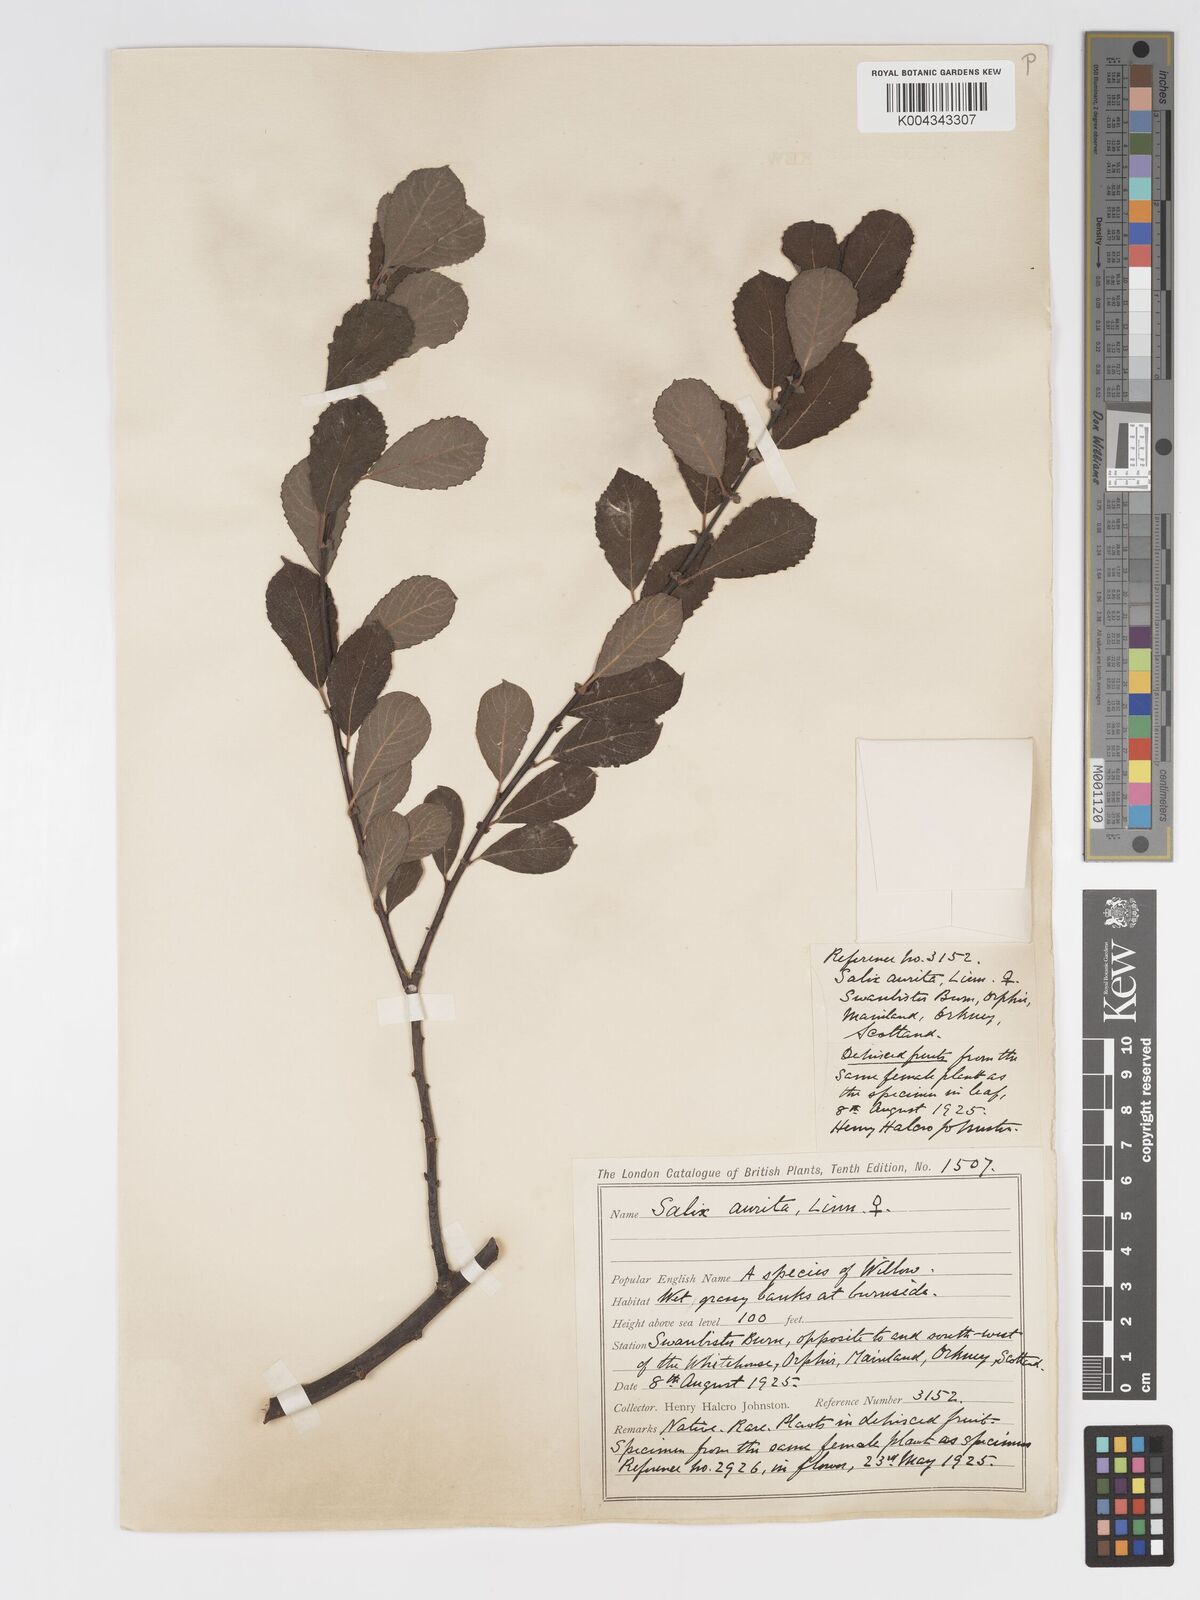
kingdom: Plantae
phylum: Tracheophyta
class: Magnoliopsida
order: Malpighiales
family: Salicaceae
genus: Salix
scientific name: Salix aurita
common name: Eared willow
